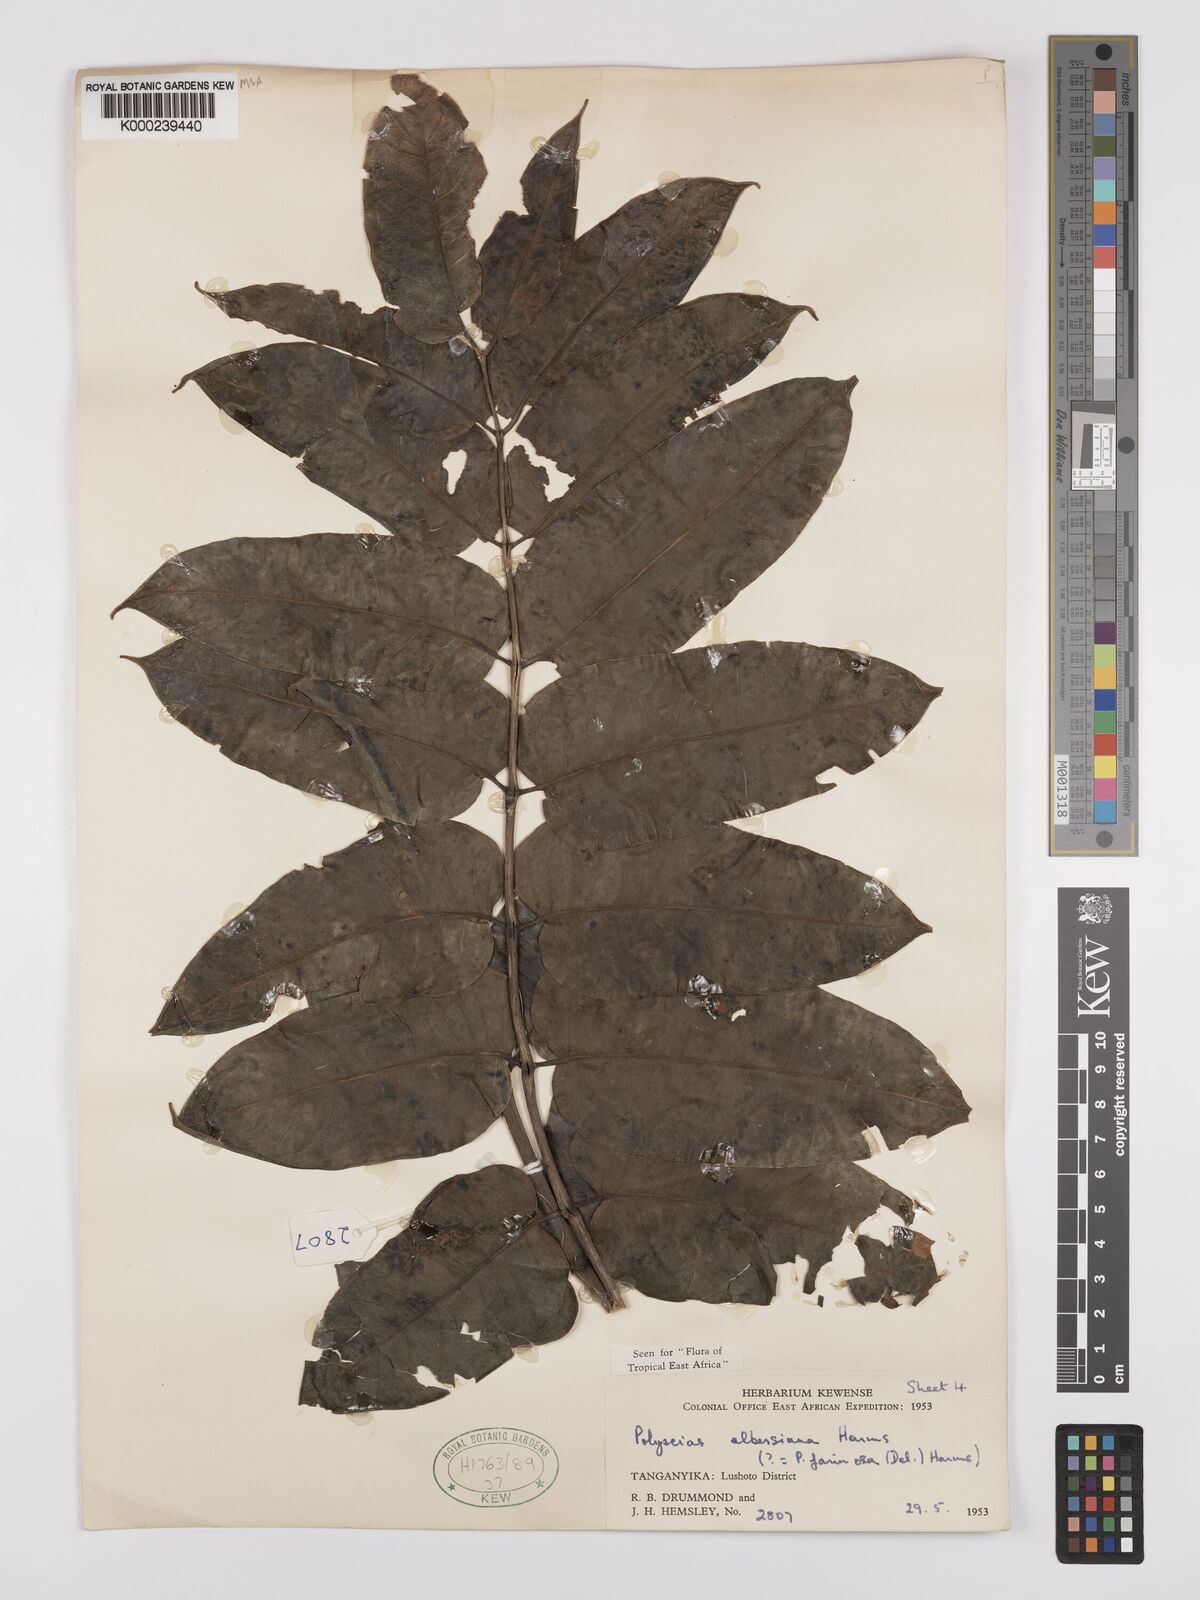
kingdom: Plantae
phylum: Tracheophyta
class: Magnoliopsida
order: Apiales
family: Araliaceae
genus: Polyscias
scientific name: Polyscias albersiana
